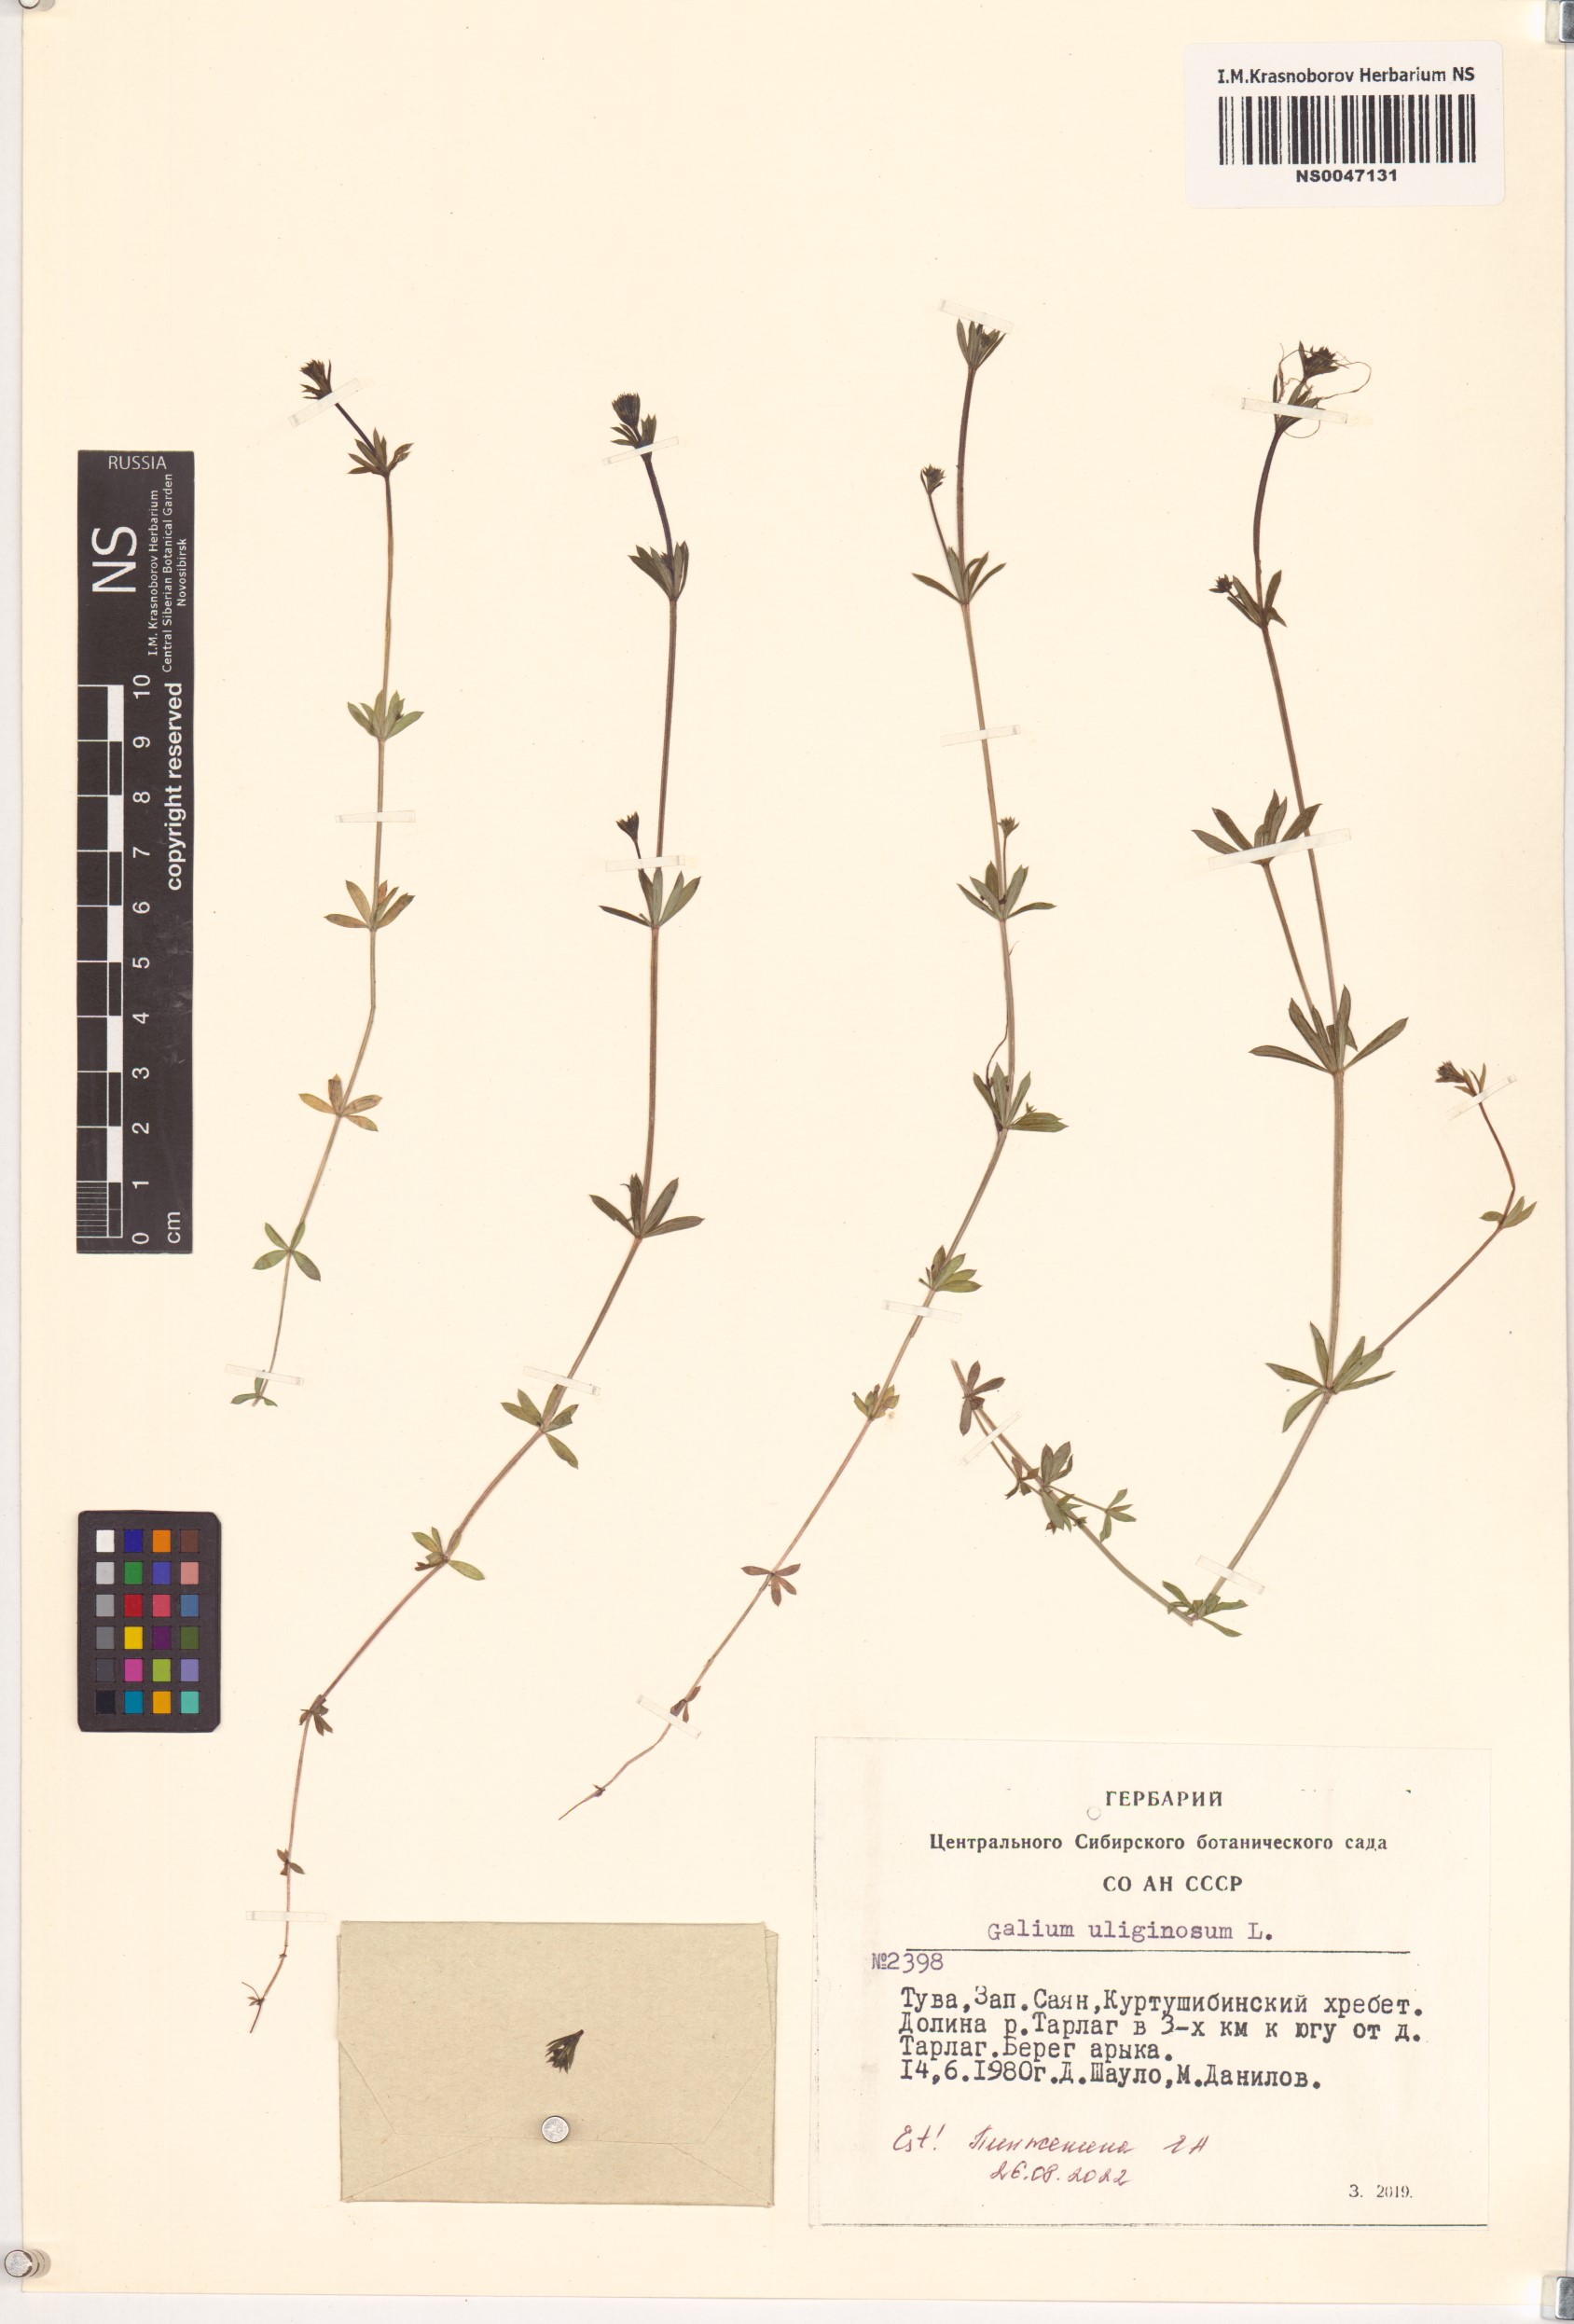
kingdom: Plantae
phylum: Tracheophyta
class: Magnoliopsida
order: Gentianales
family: Rubiaceae
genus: Galium
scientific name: Galium uliginosum
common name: Fen bedstraw
